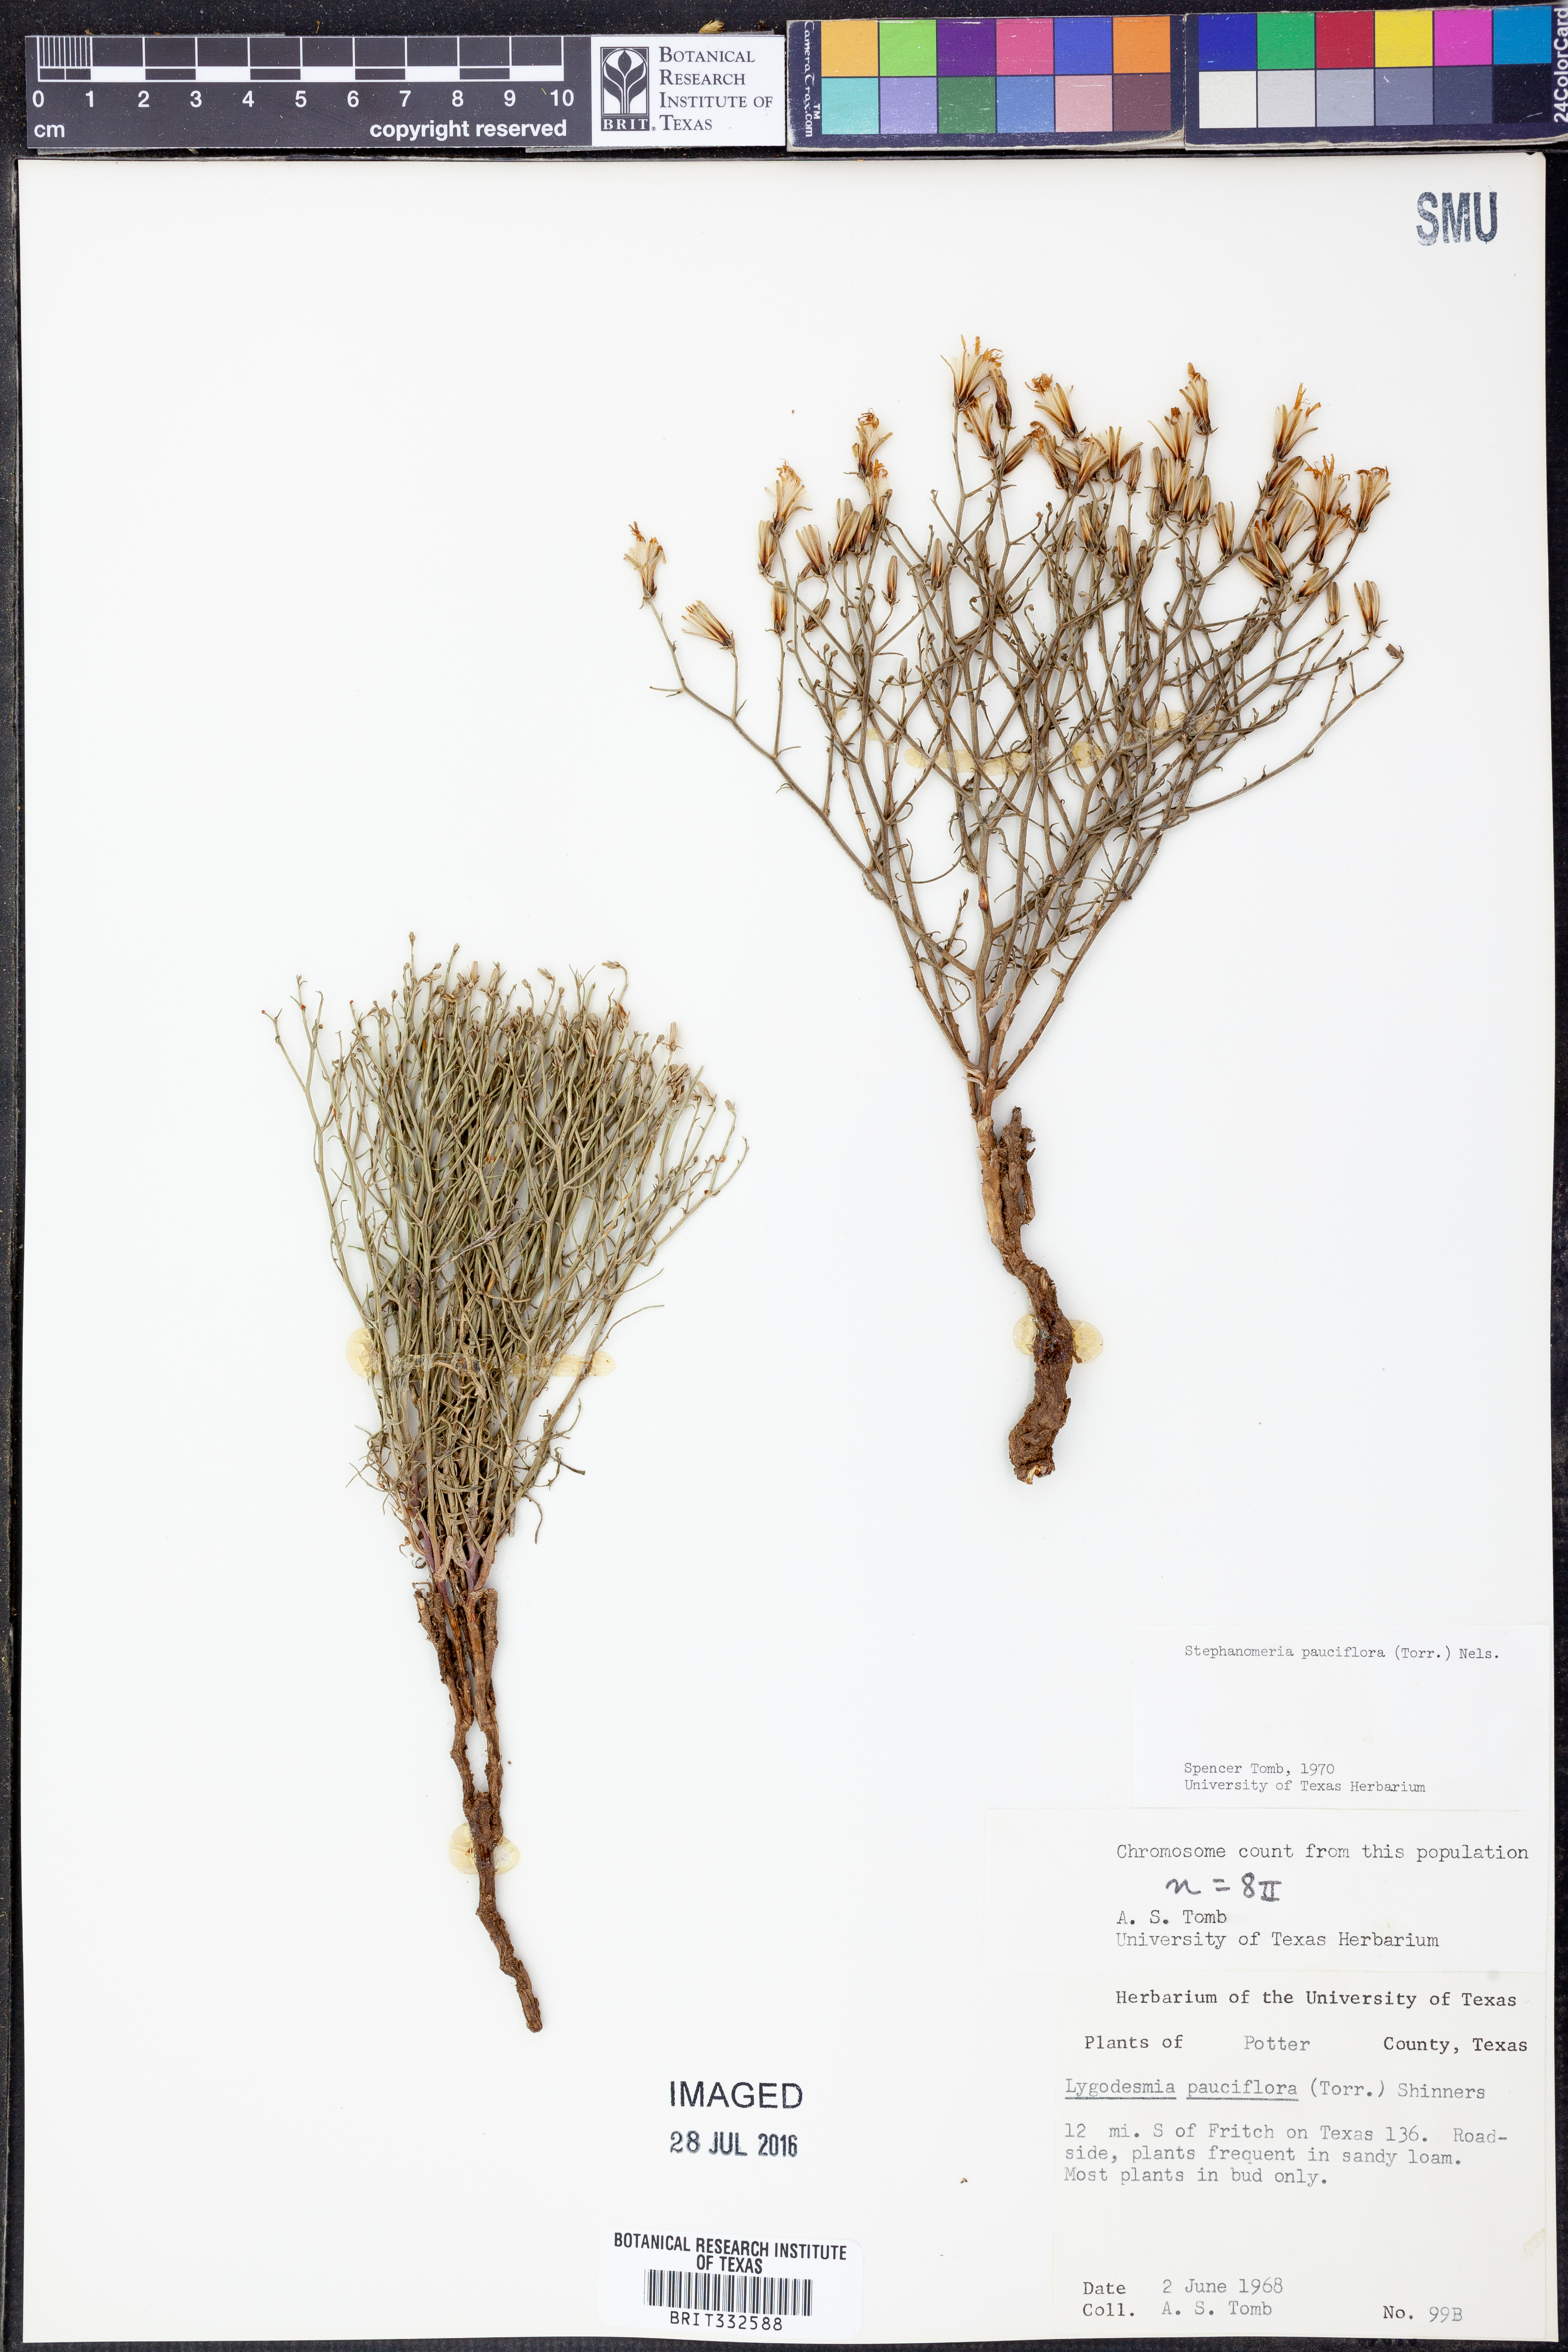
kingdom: Plantae
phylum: Tracheophyta
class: Magnoliopsida
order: Asterales
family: Asteraceae
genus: Stephanomeria
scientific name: Stephanomeria pauciflora
